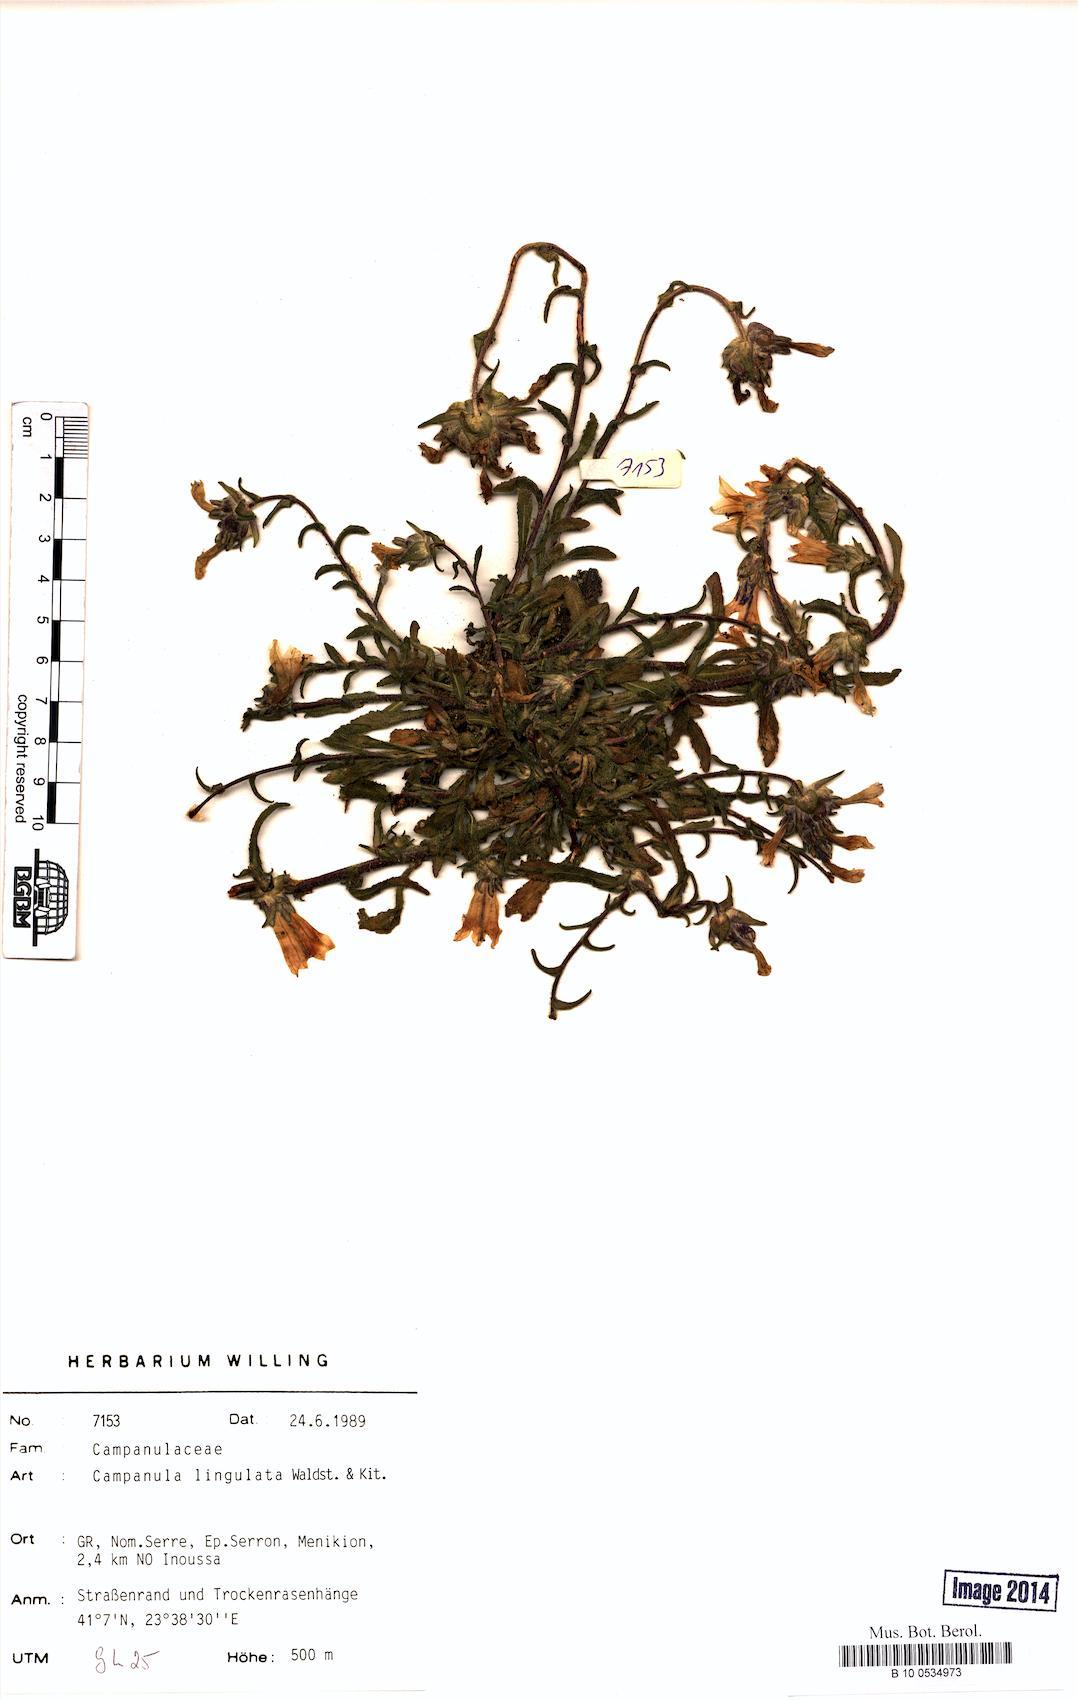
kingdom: Plantae
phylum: Tracheophyta
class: Magnoliopsida
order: Asterales
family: Campanulaceae
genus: Campanula
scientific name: Campanula lingulata
